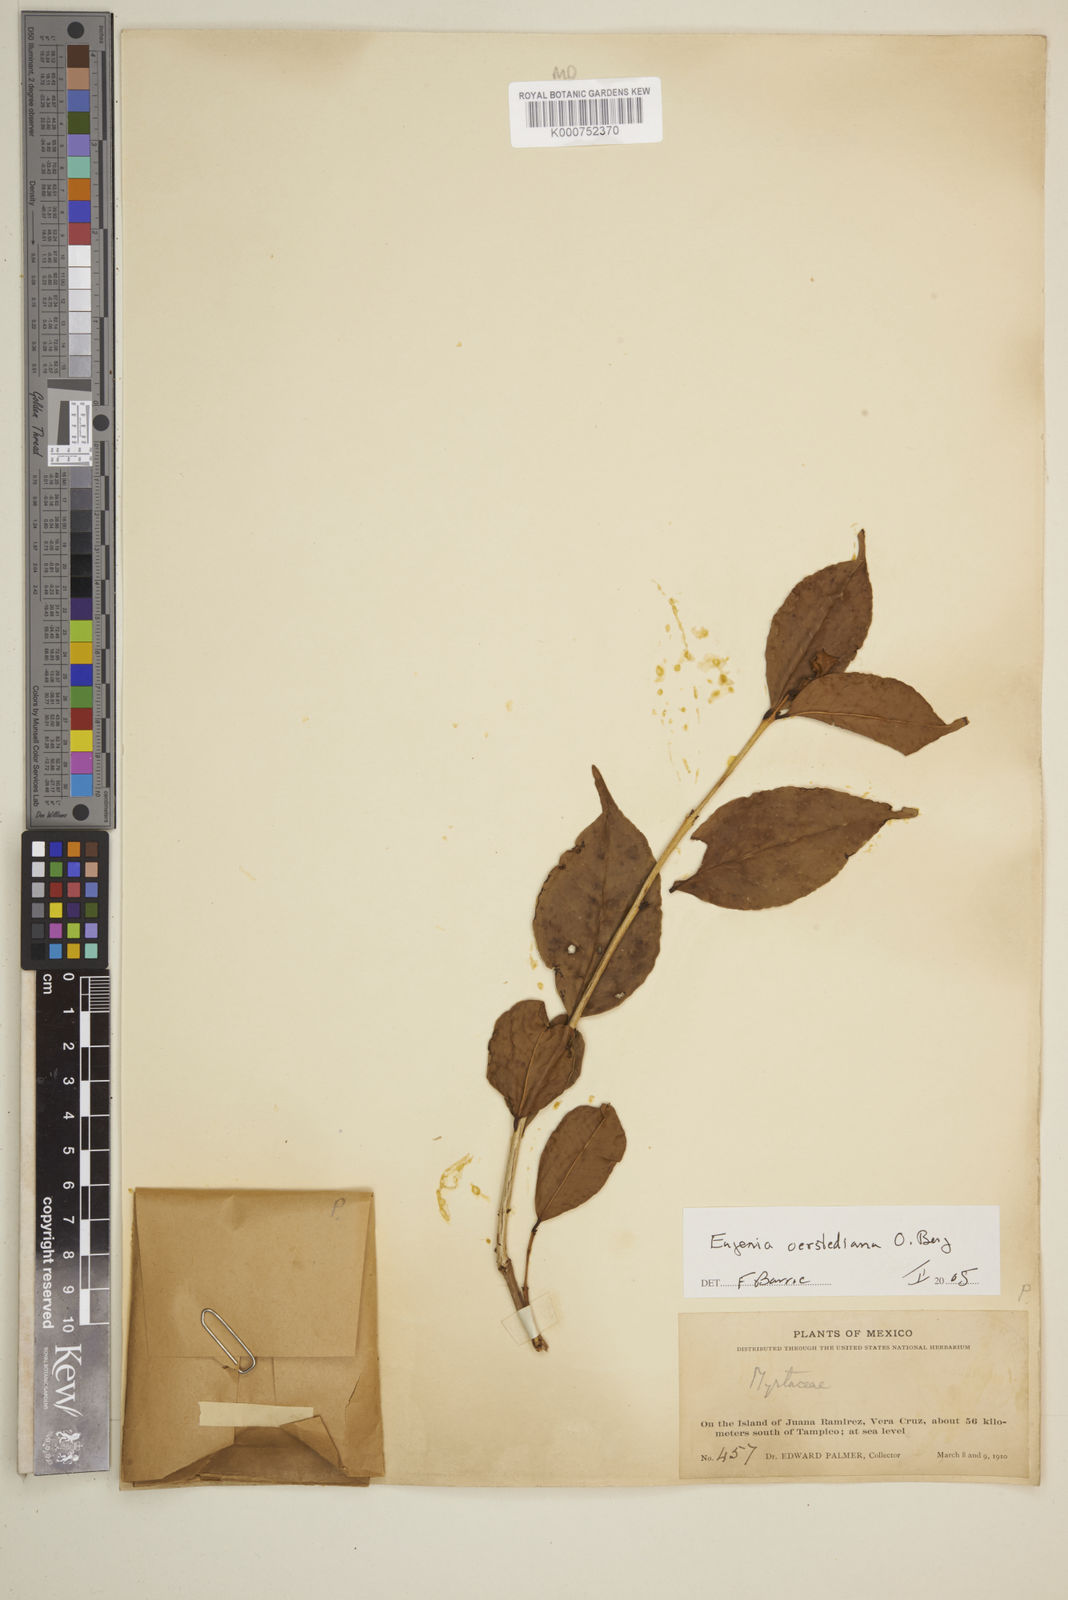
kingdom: Plantae
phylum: Tracheophyta
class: Magnoliopsida
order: Myrtales
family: Myrtaceae
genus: Eugenia
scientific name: Eugenia oerstediana
